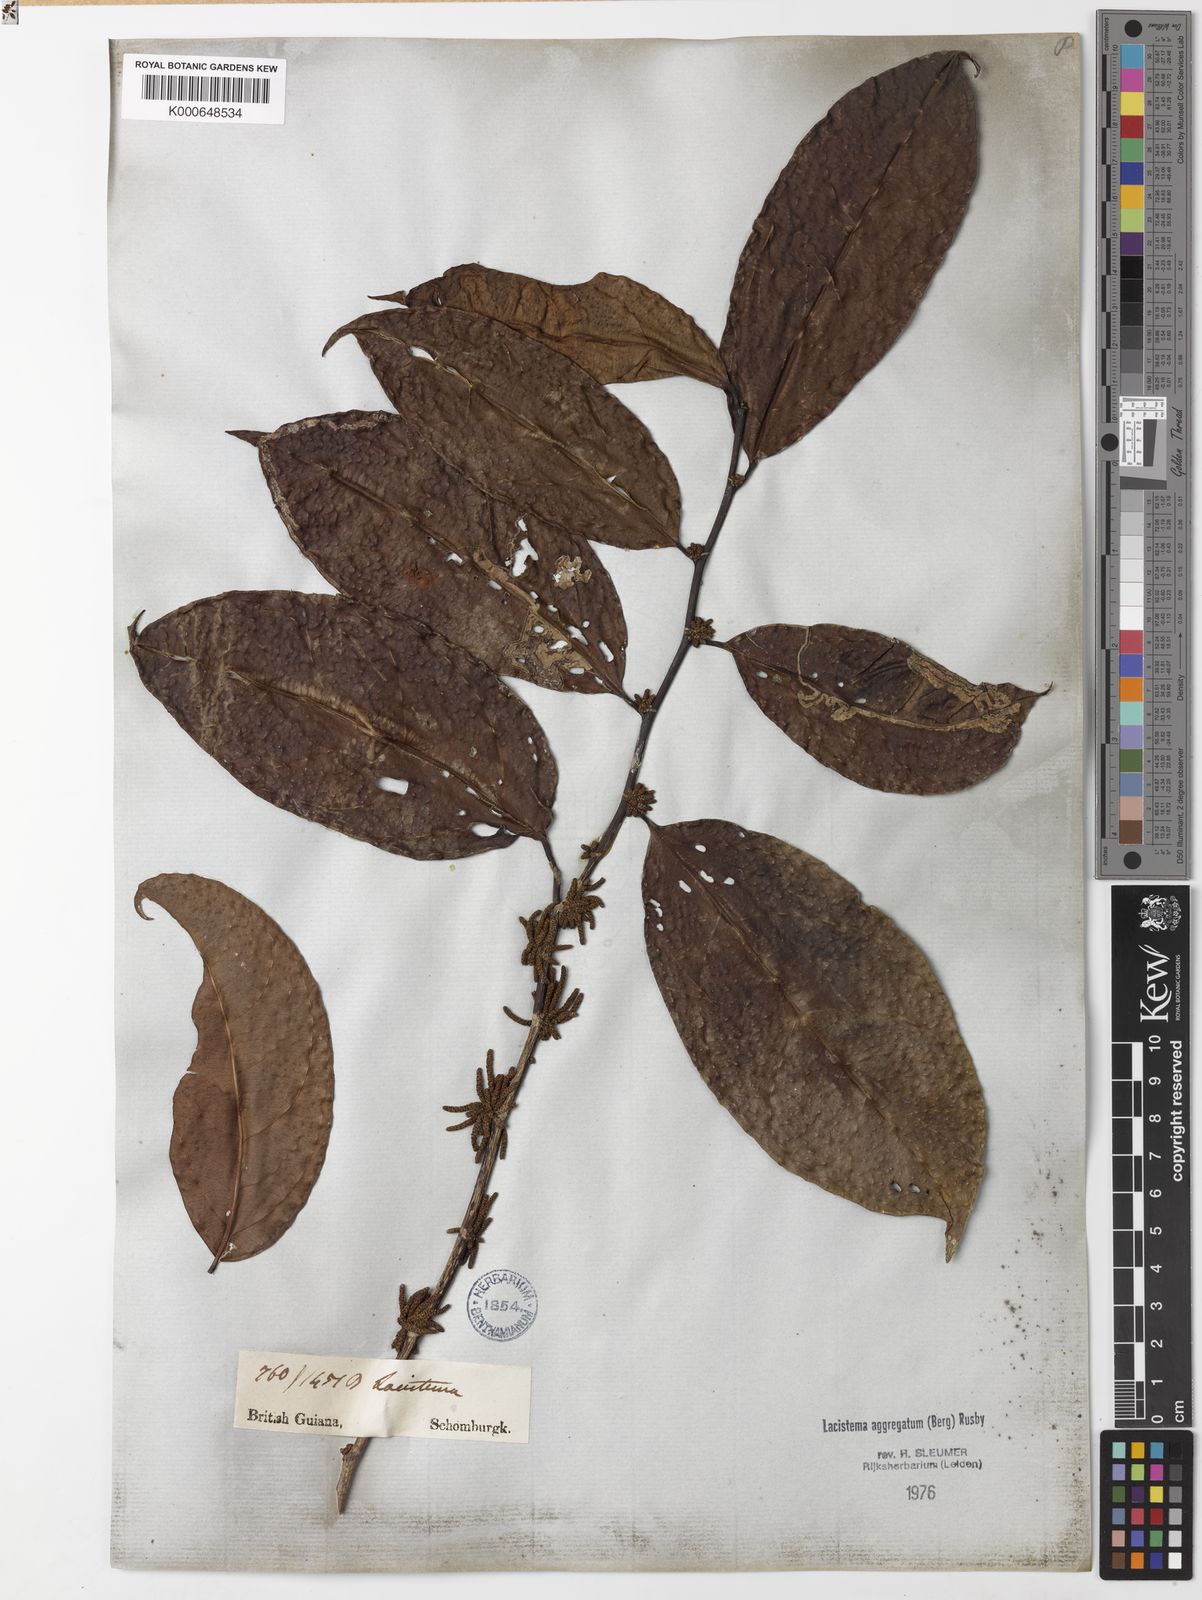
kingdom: Plantae
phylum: Tracheophyta
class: Magnoliopsida
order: Malpighiales
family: Lacistemataceae
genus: Lacistema
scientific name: Lacistema aggregatum
